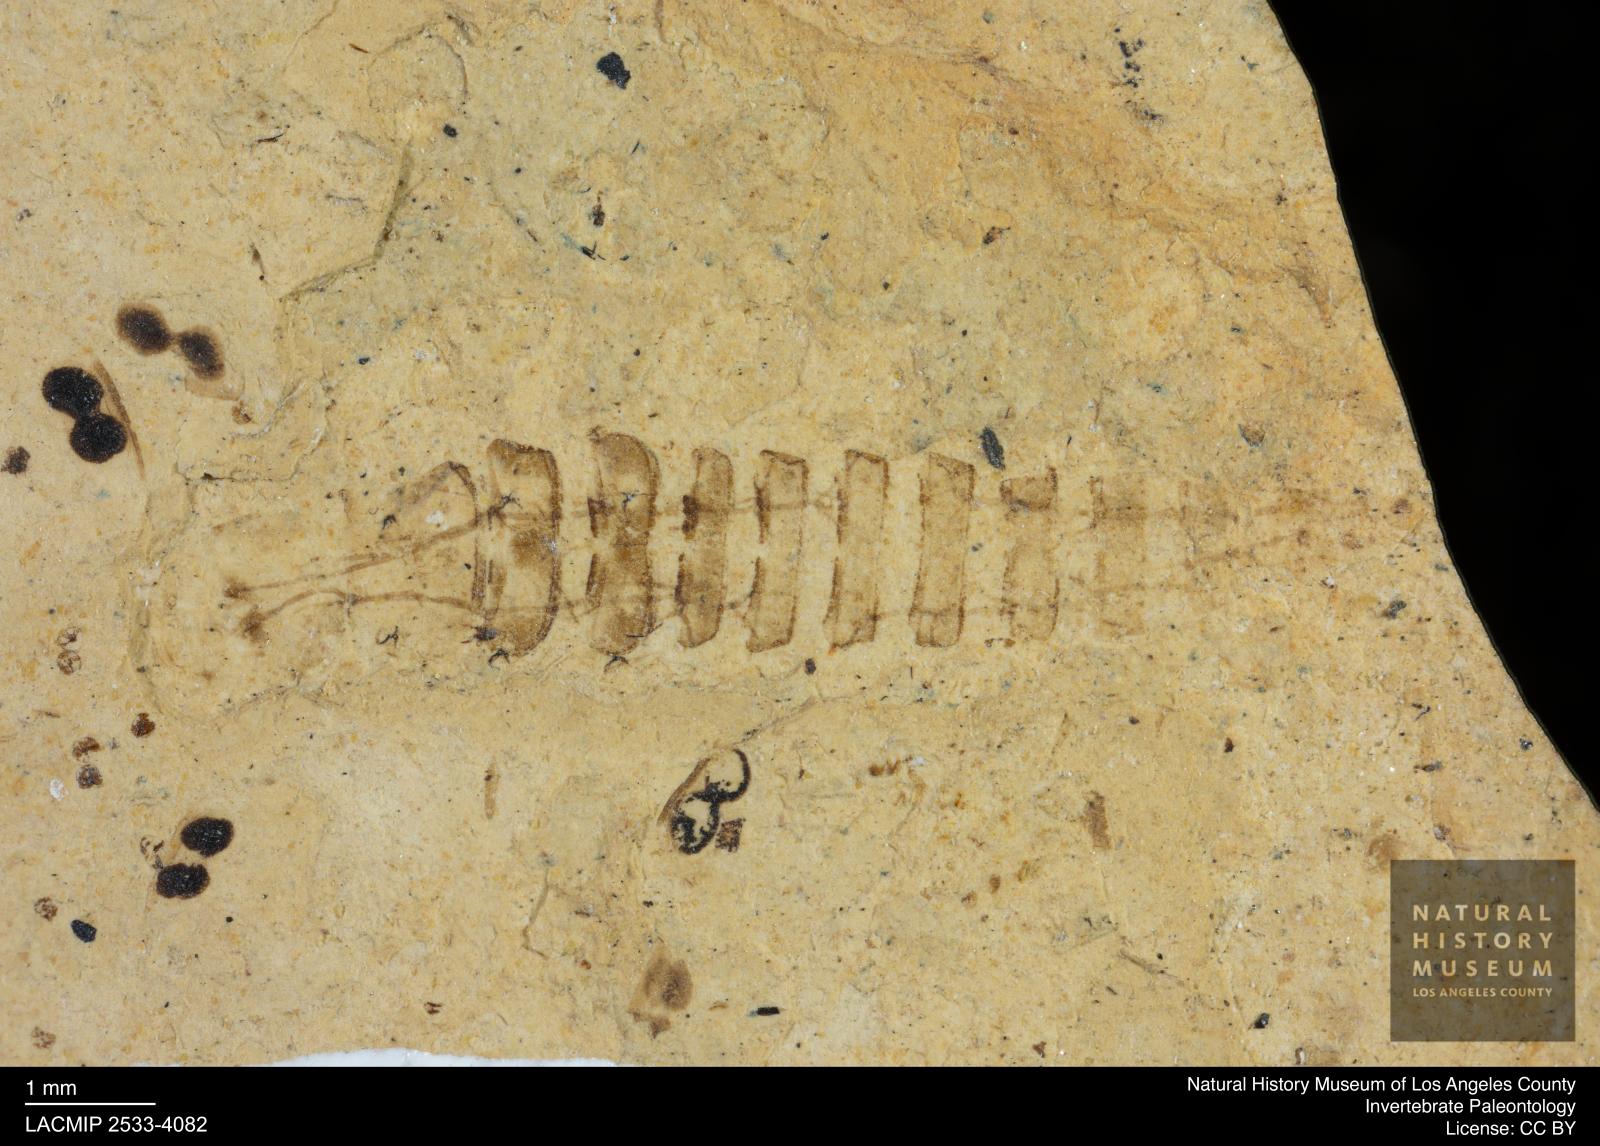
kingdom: Animalia
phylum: Arthropoda
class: Insecta
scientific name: Insecta
